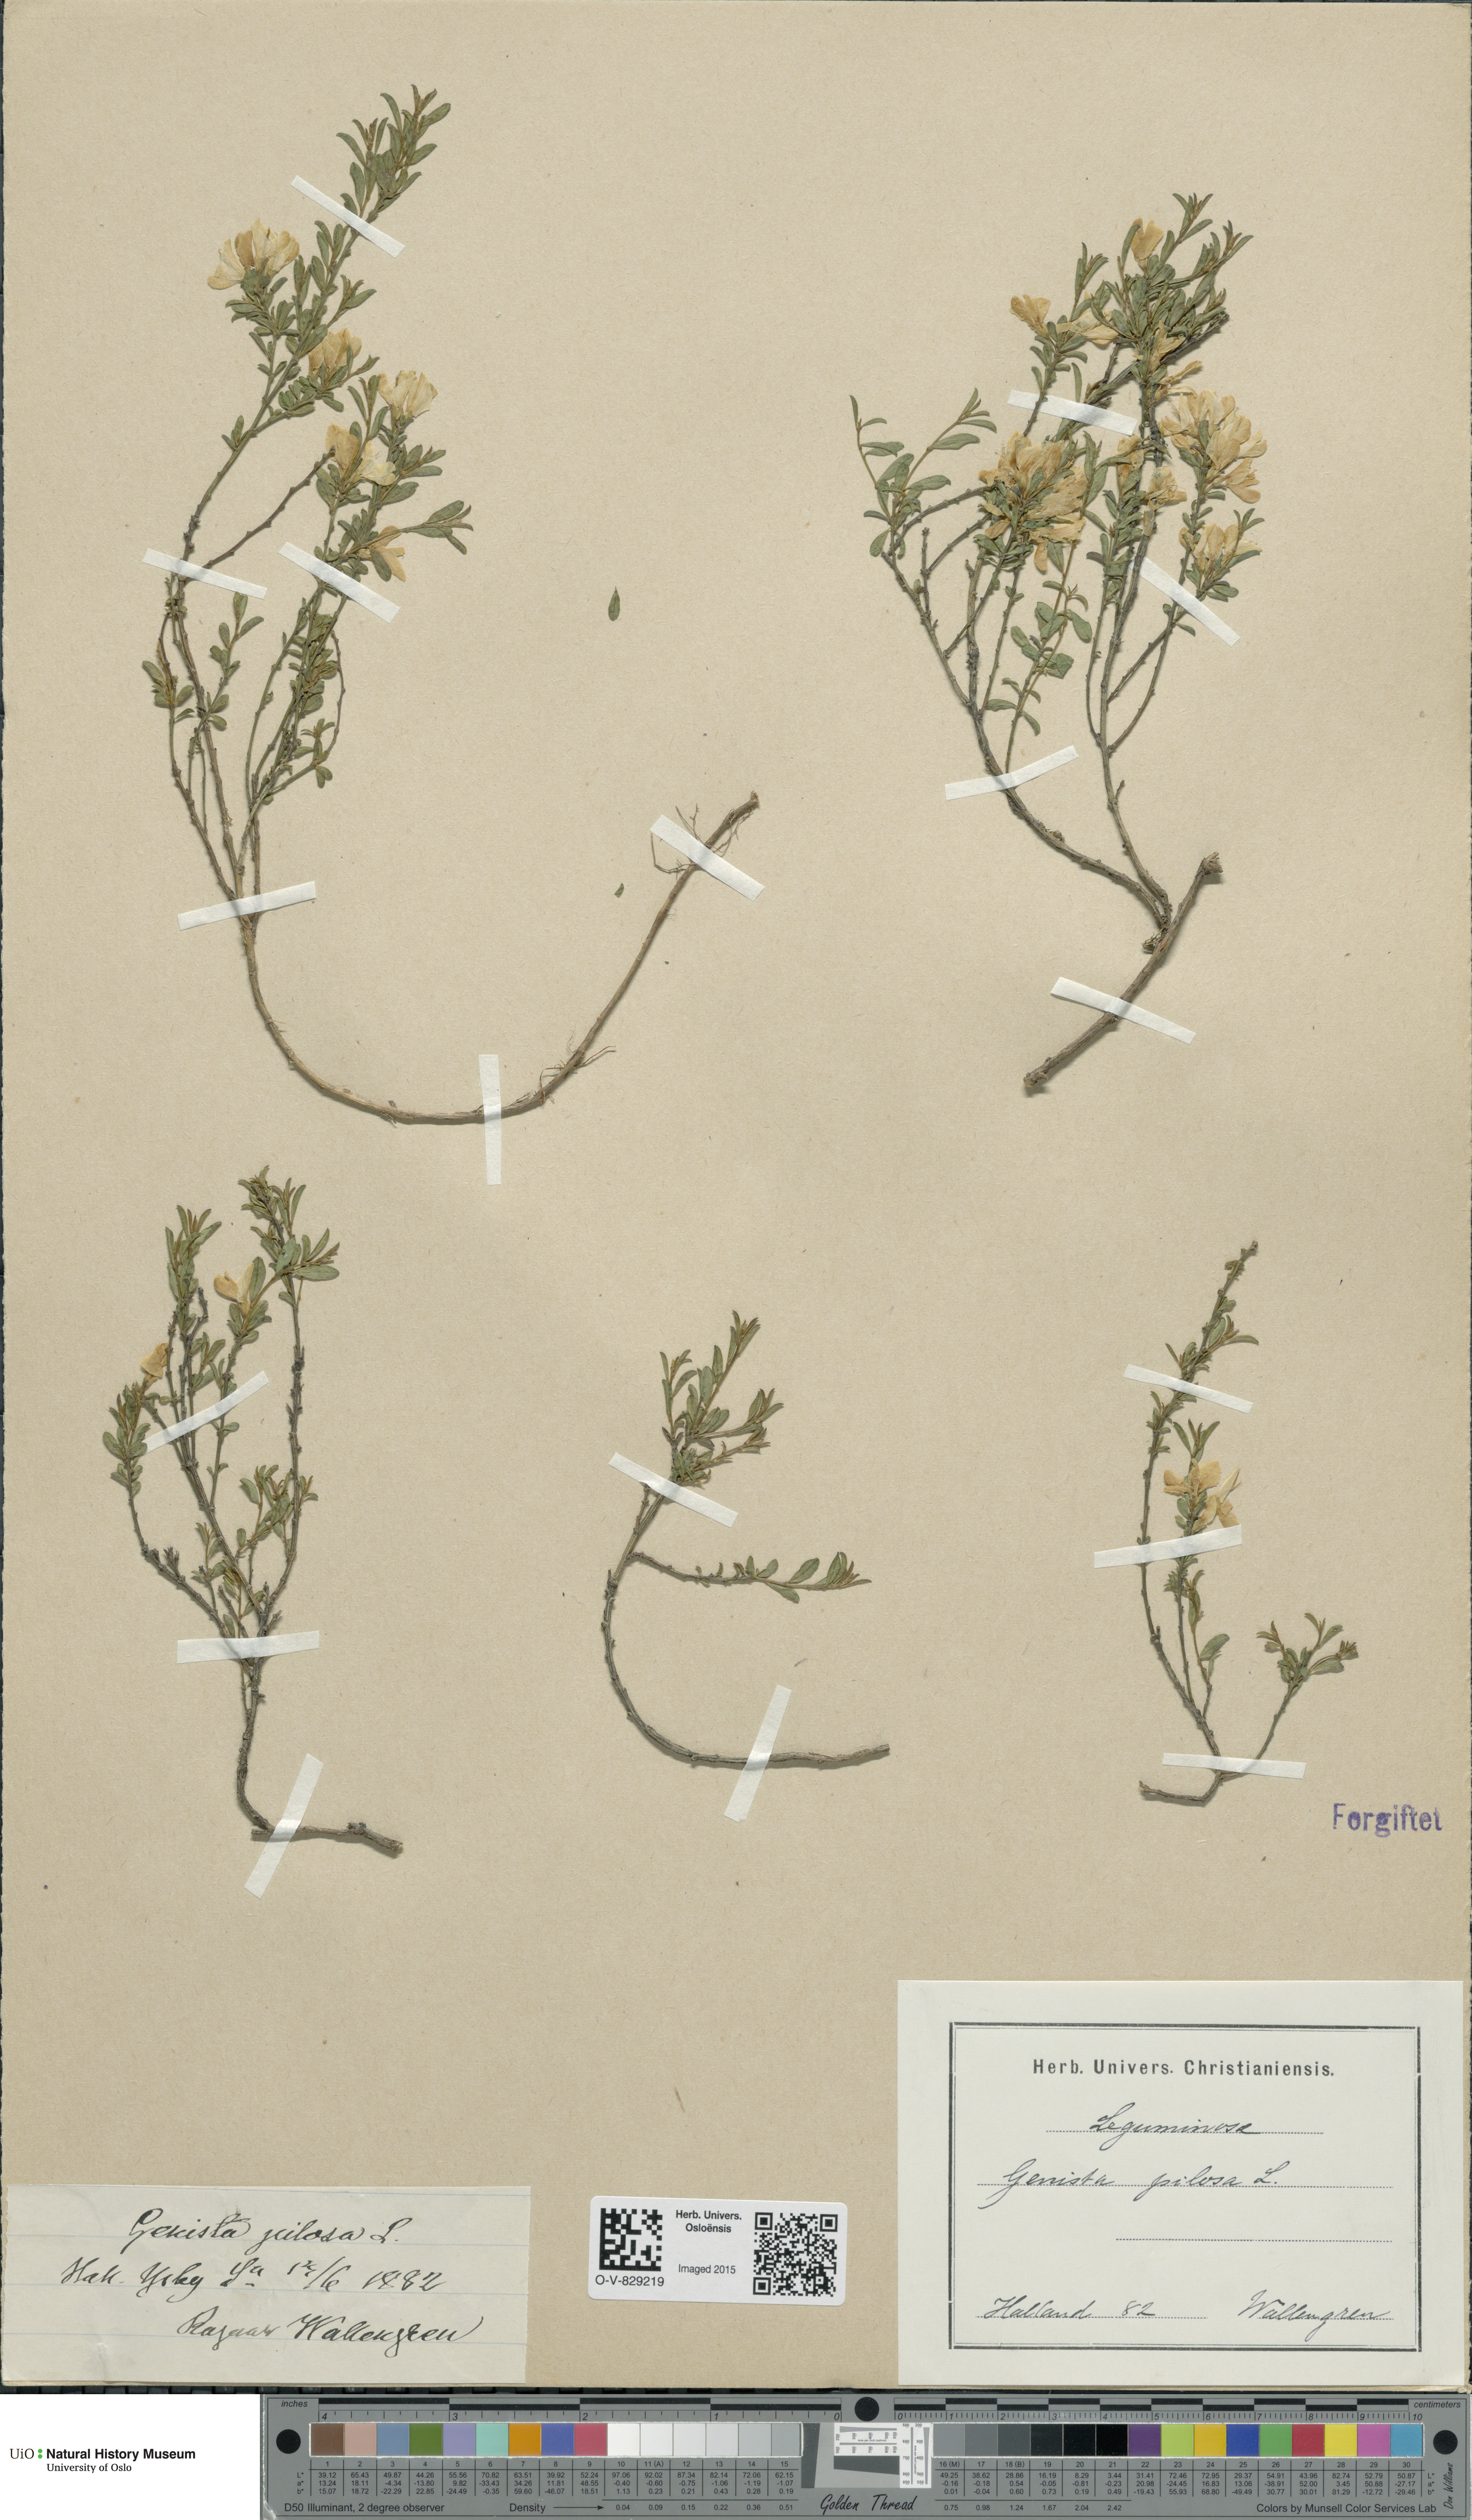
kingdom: Plantae
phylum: Tracheophyta
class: Magnoliopsida
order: Fabales
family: Fabaceae
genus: Genista
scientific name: Genista pilosa
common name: Hairy greenweed
